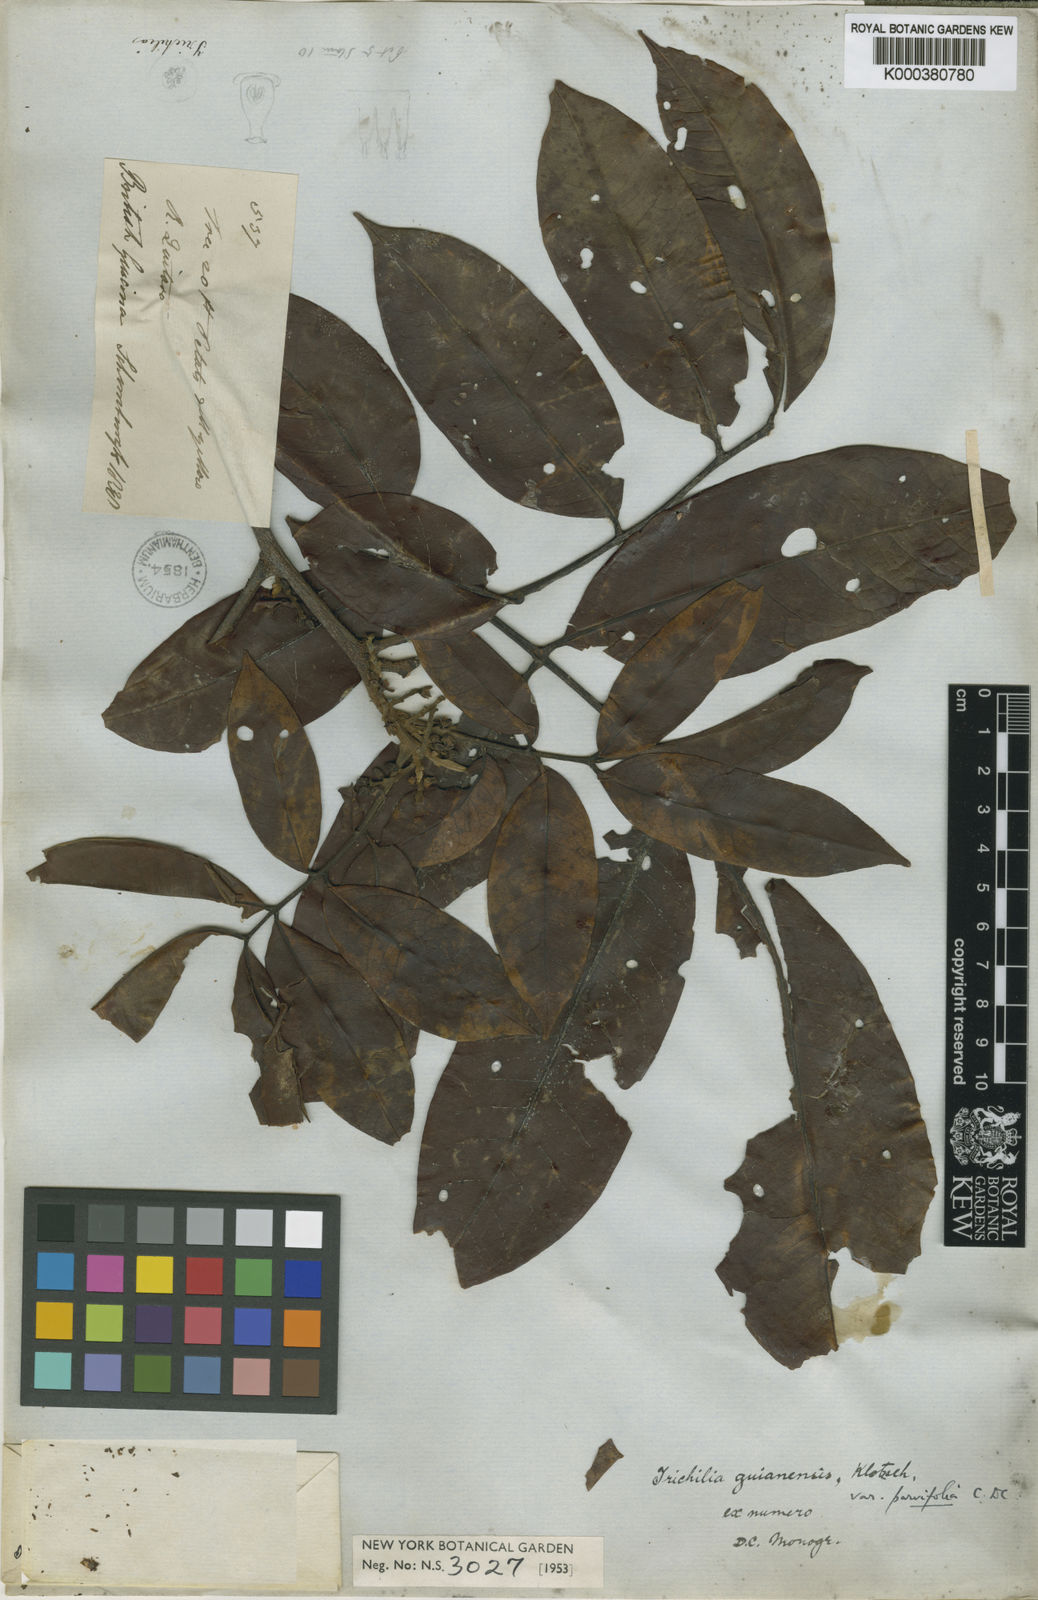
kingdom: Plantae
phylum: Tracheophyta
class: Magnoliopsida
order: Sapindales
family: Meliaceae
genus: Trichilia
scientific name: Trichilia rubra
